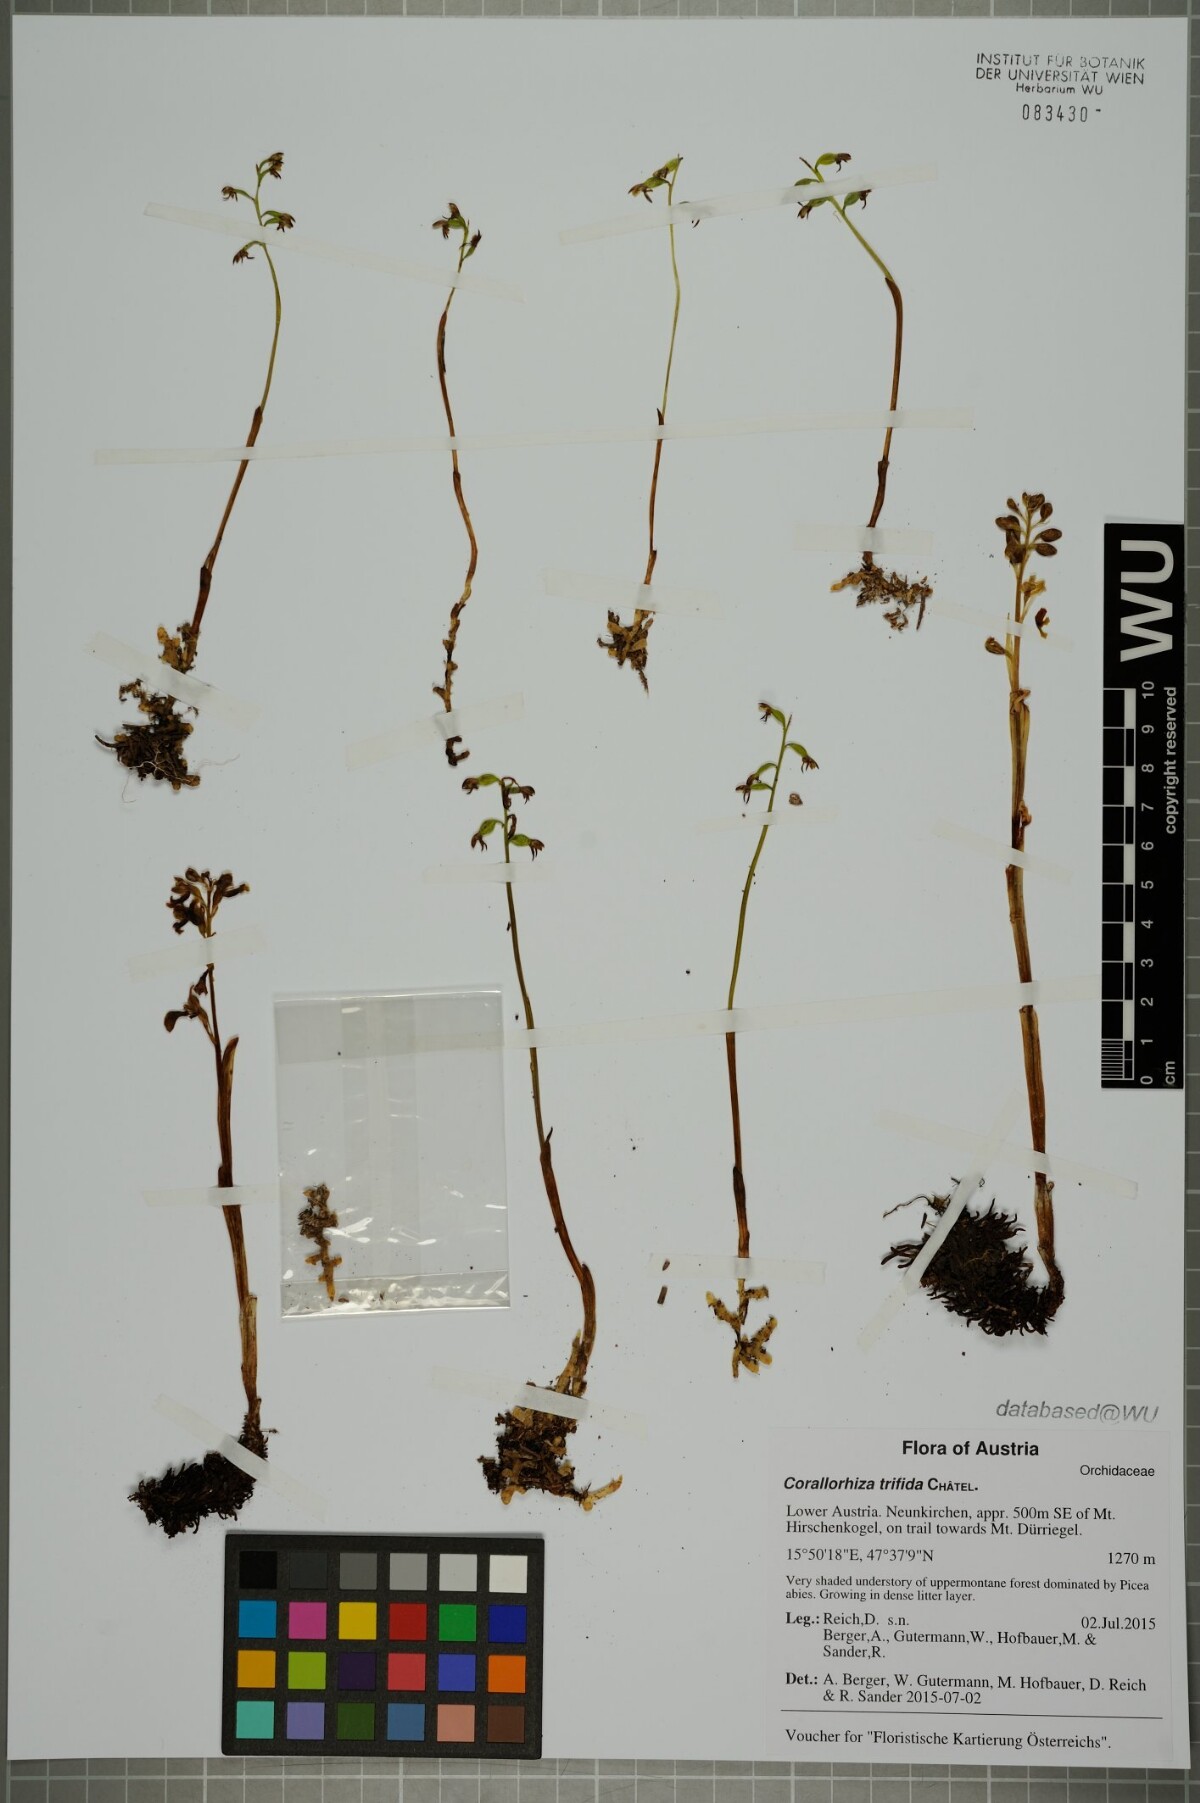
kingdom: Plantae
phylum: Tracheophyta
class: Liliopsida
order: Asparagales
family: Orchidaceae
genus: Corallorhiza
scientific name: Corallorhiza trifida
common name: Yellow coralroot
